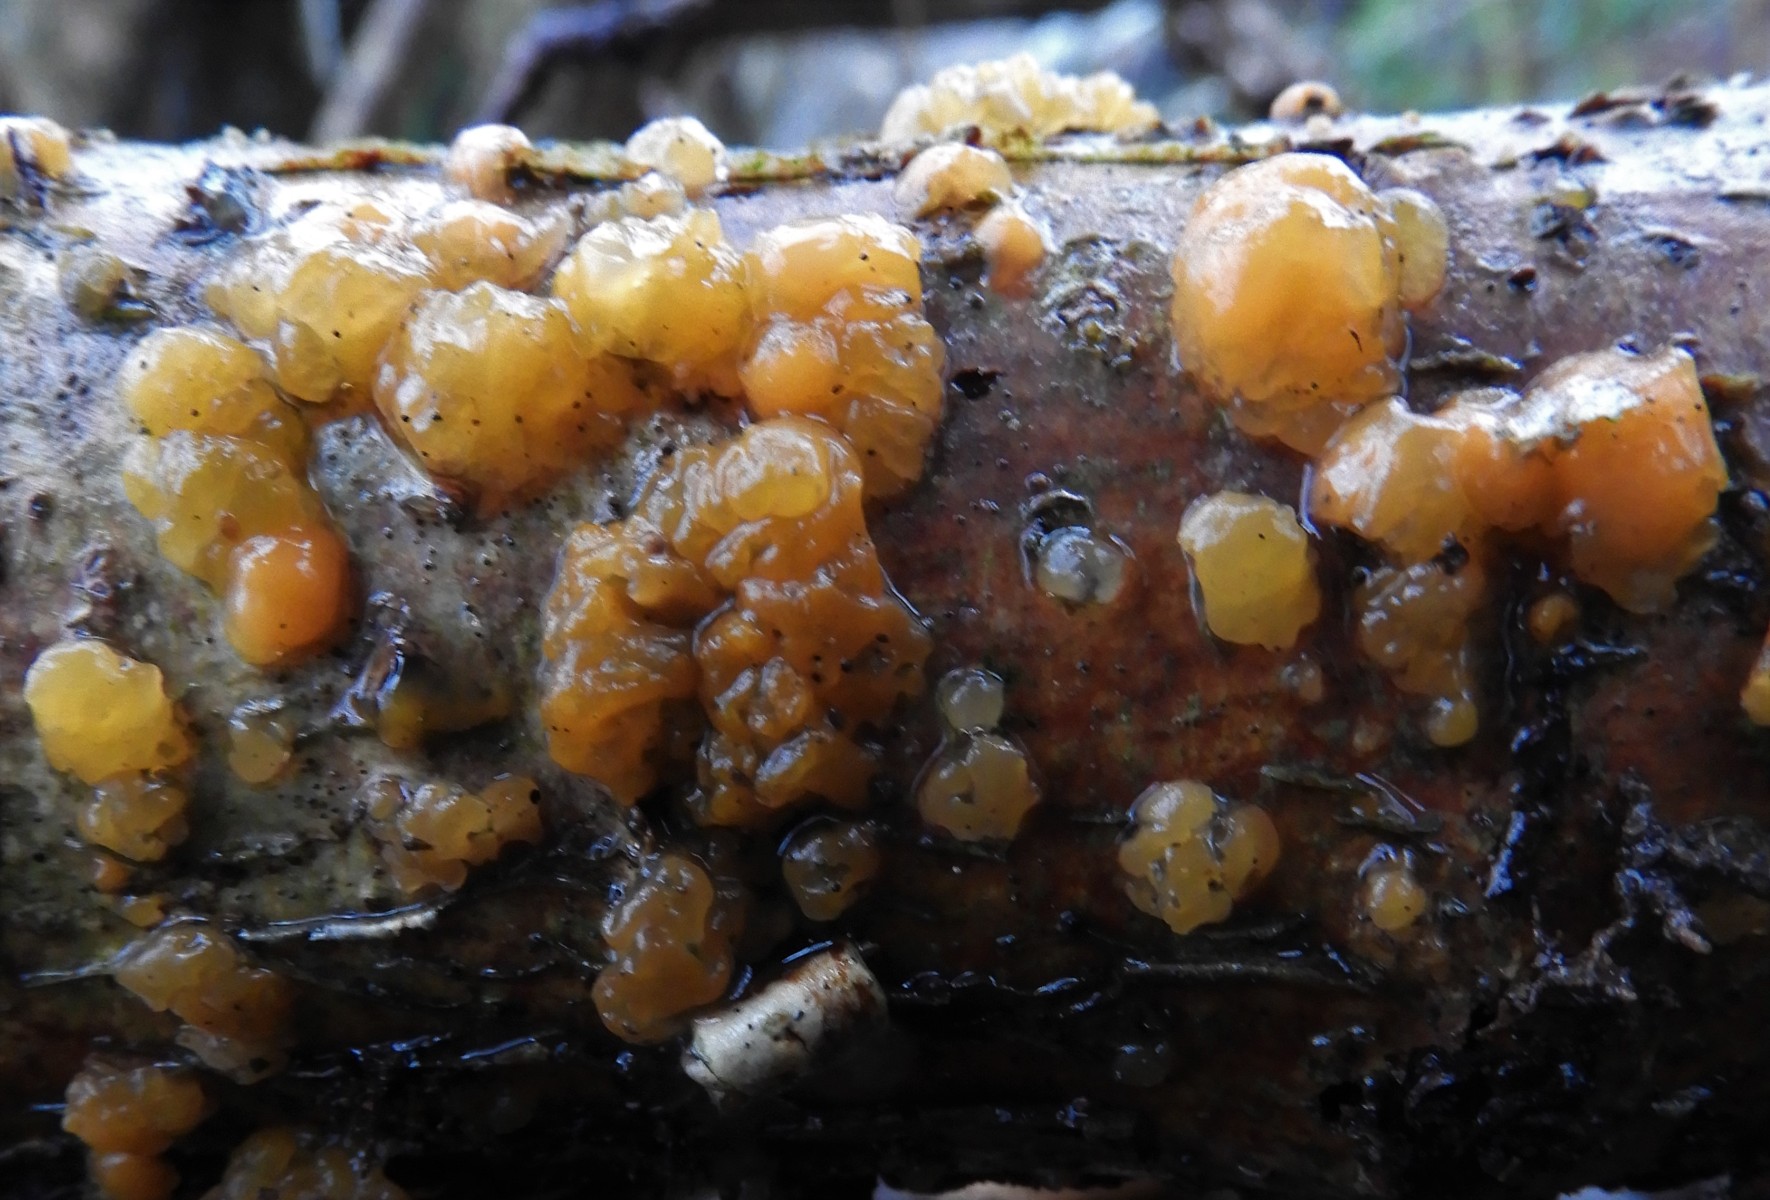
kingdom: Fungi
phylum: Basidiomycota
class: Dacrymycetes
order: Dacrymycetales
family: Dacrymycetaceae
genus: Dacrymyces
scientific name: Dacrymyces lacrymalis
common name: rynket tåresvamp
